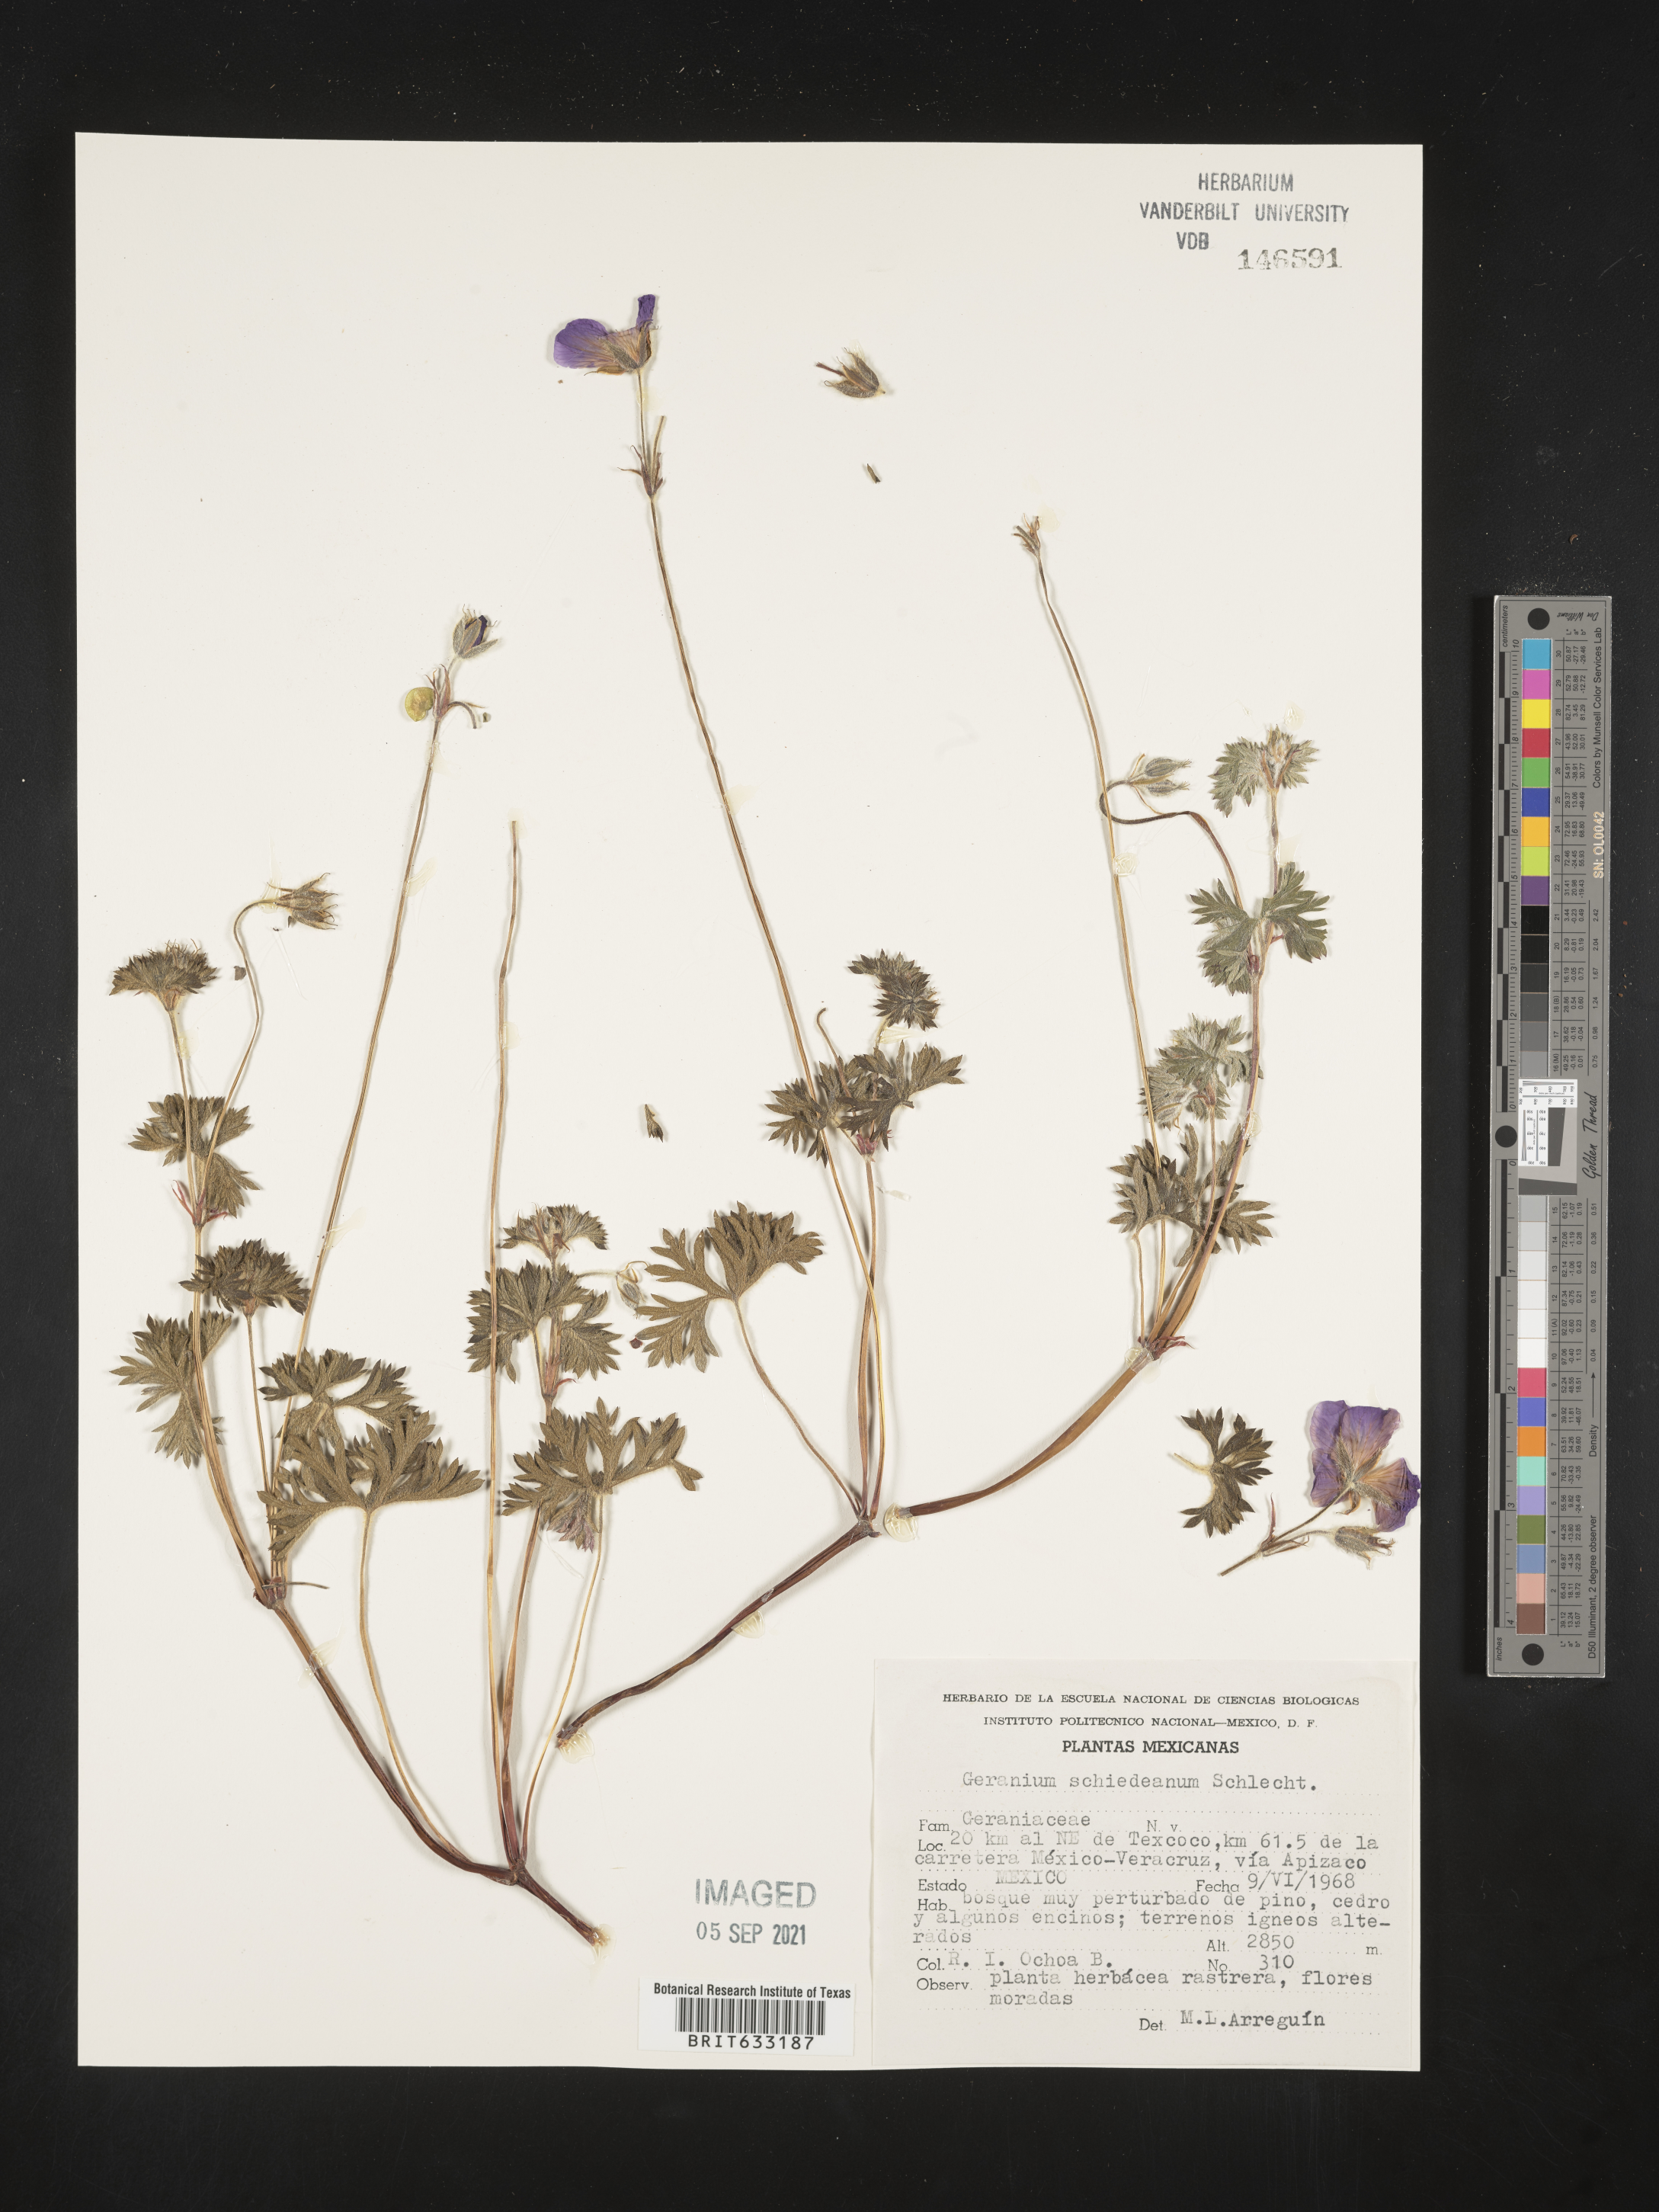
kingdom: Plantae
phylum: Tracheophyta
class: Magnoliopsida
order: Geraniales
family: Geraniaceae
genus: Geranium
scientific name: Geranium
